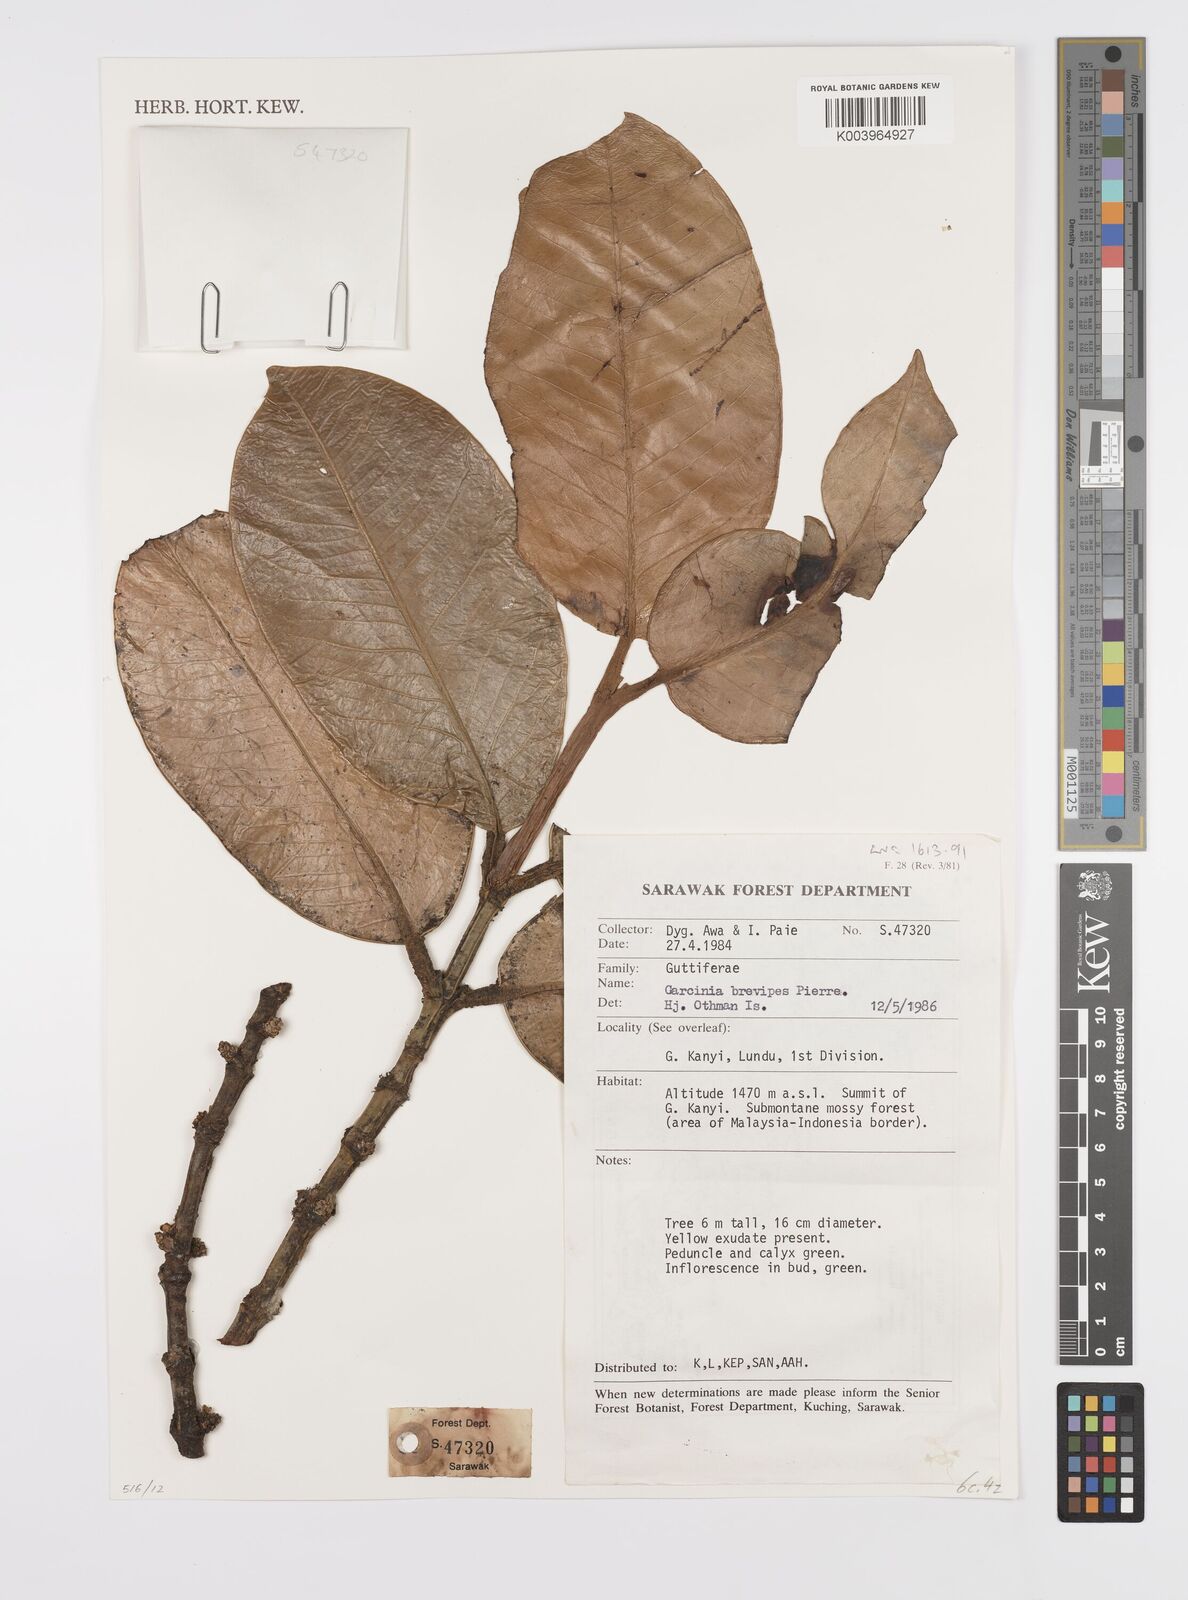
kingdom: Plantae
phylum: Tracheophyta
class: Magnoliopsida
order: Malpighiales
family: Clusiaceae
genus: Garcinia
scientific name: Garcinia brevipes
